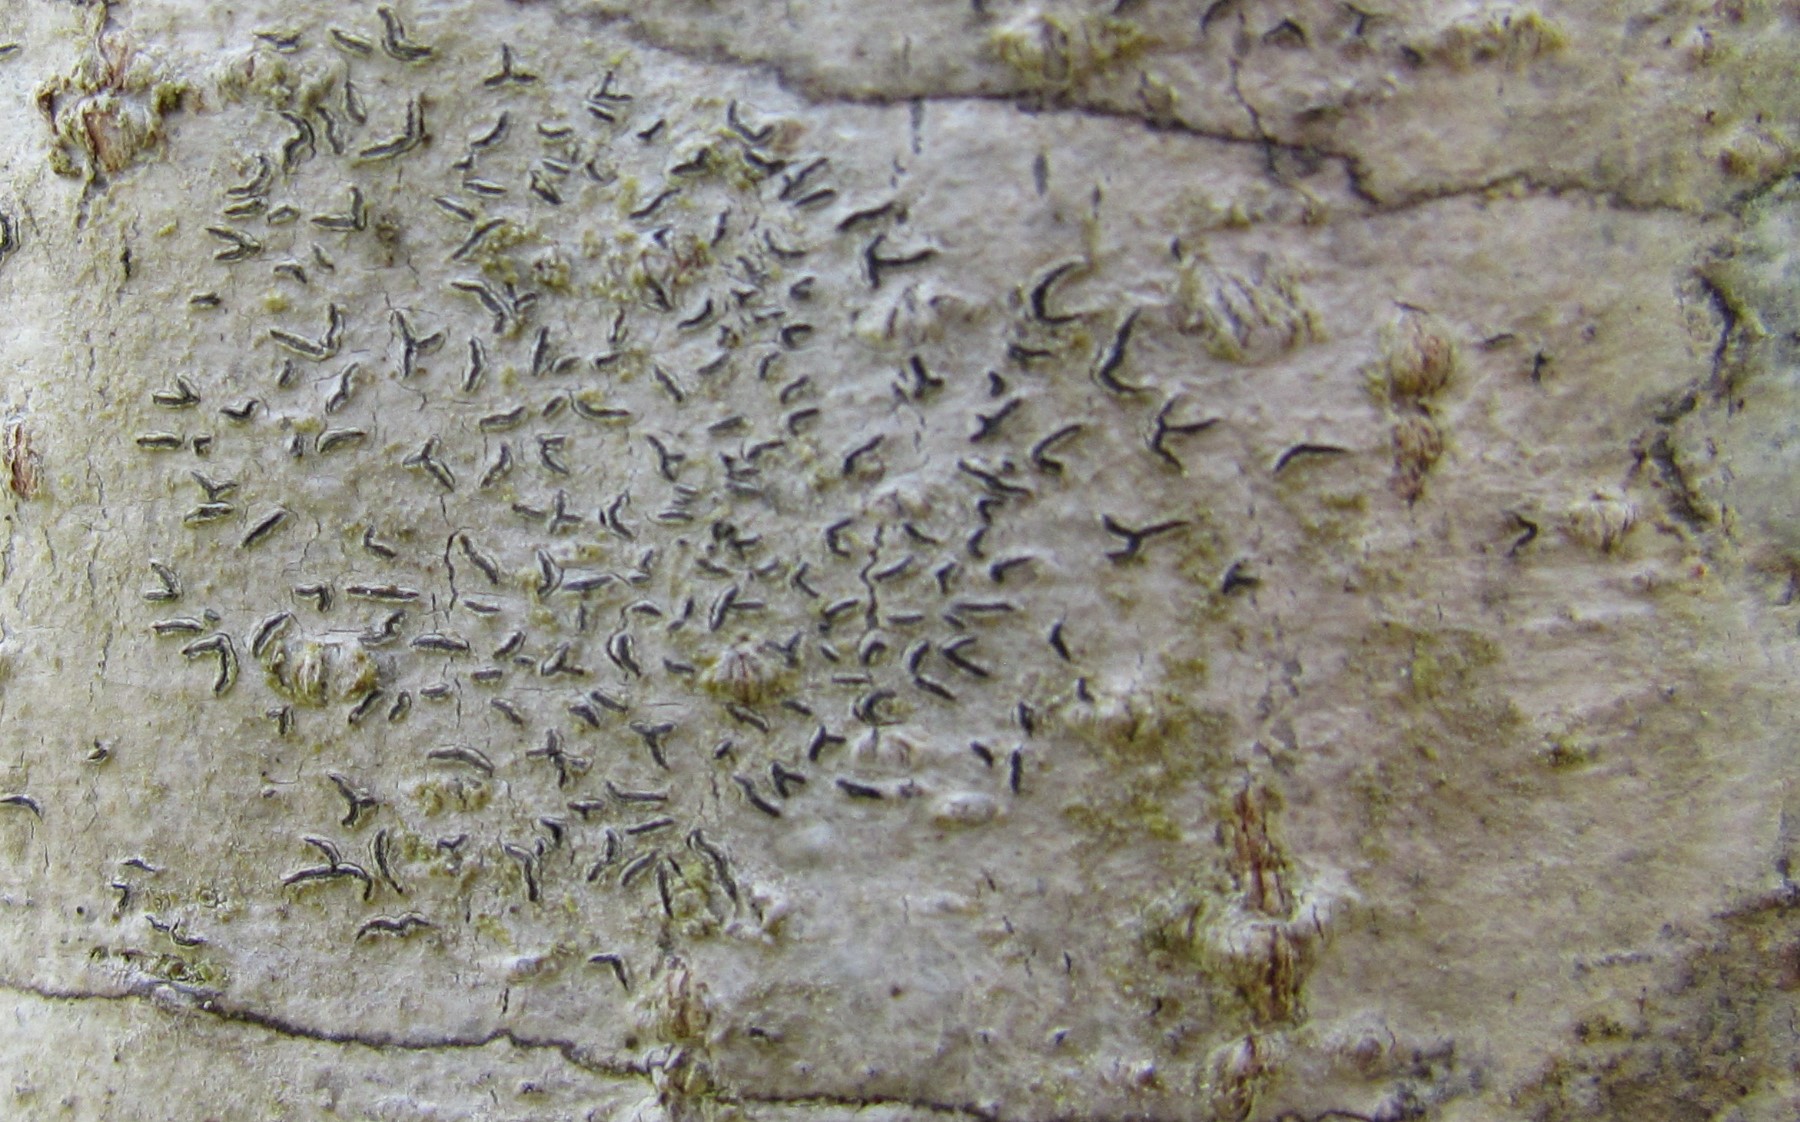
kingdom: Fungi
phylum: Ascomycota
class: Lecanoromycetes
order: Ostropales
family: Graphidaceae
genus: Graphis
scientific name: Graphis scripta
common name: almindelig skriftlav
